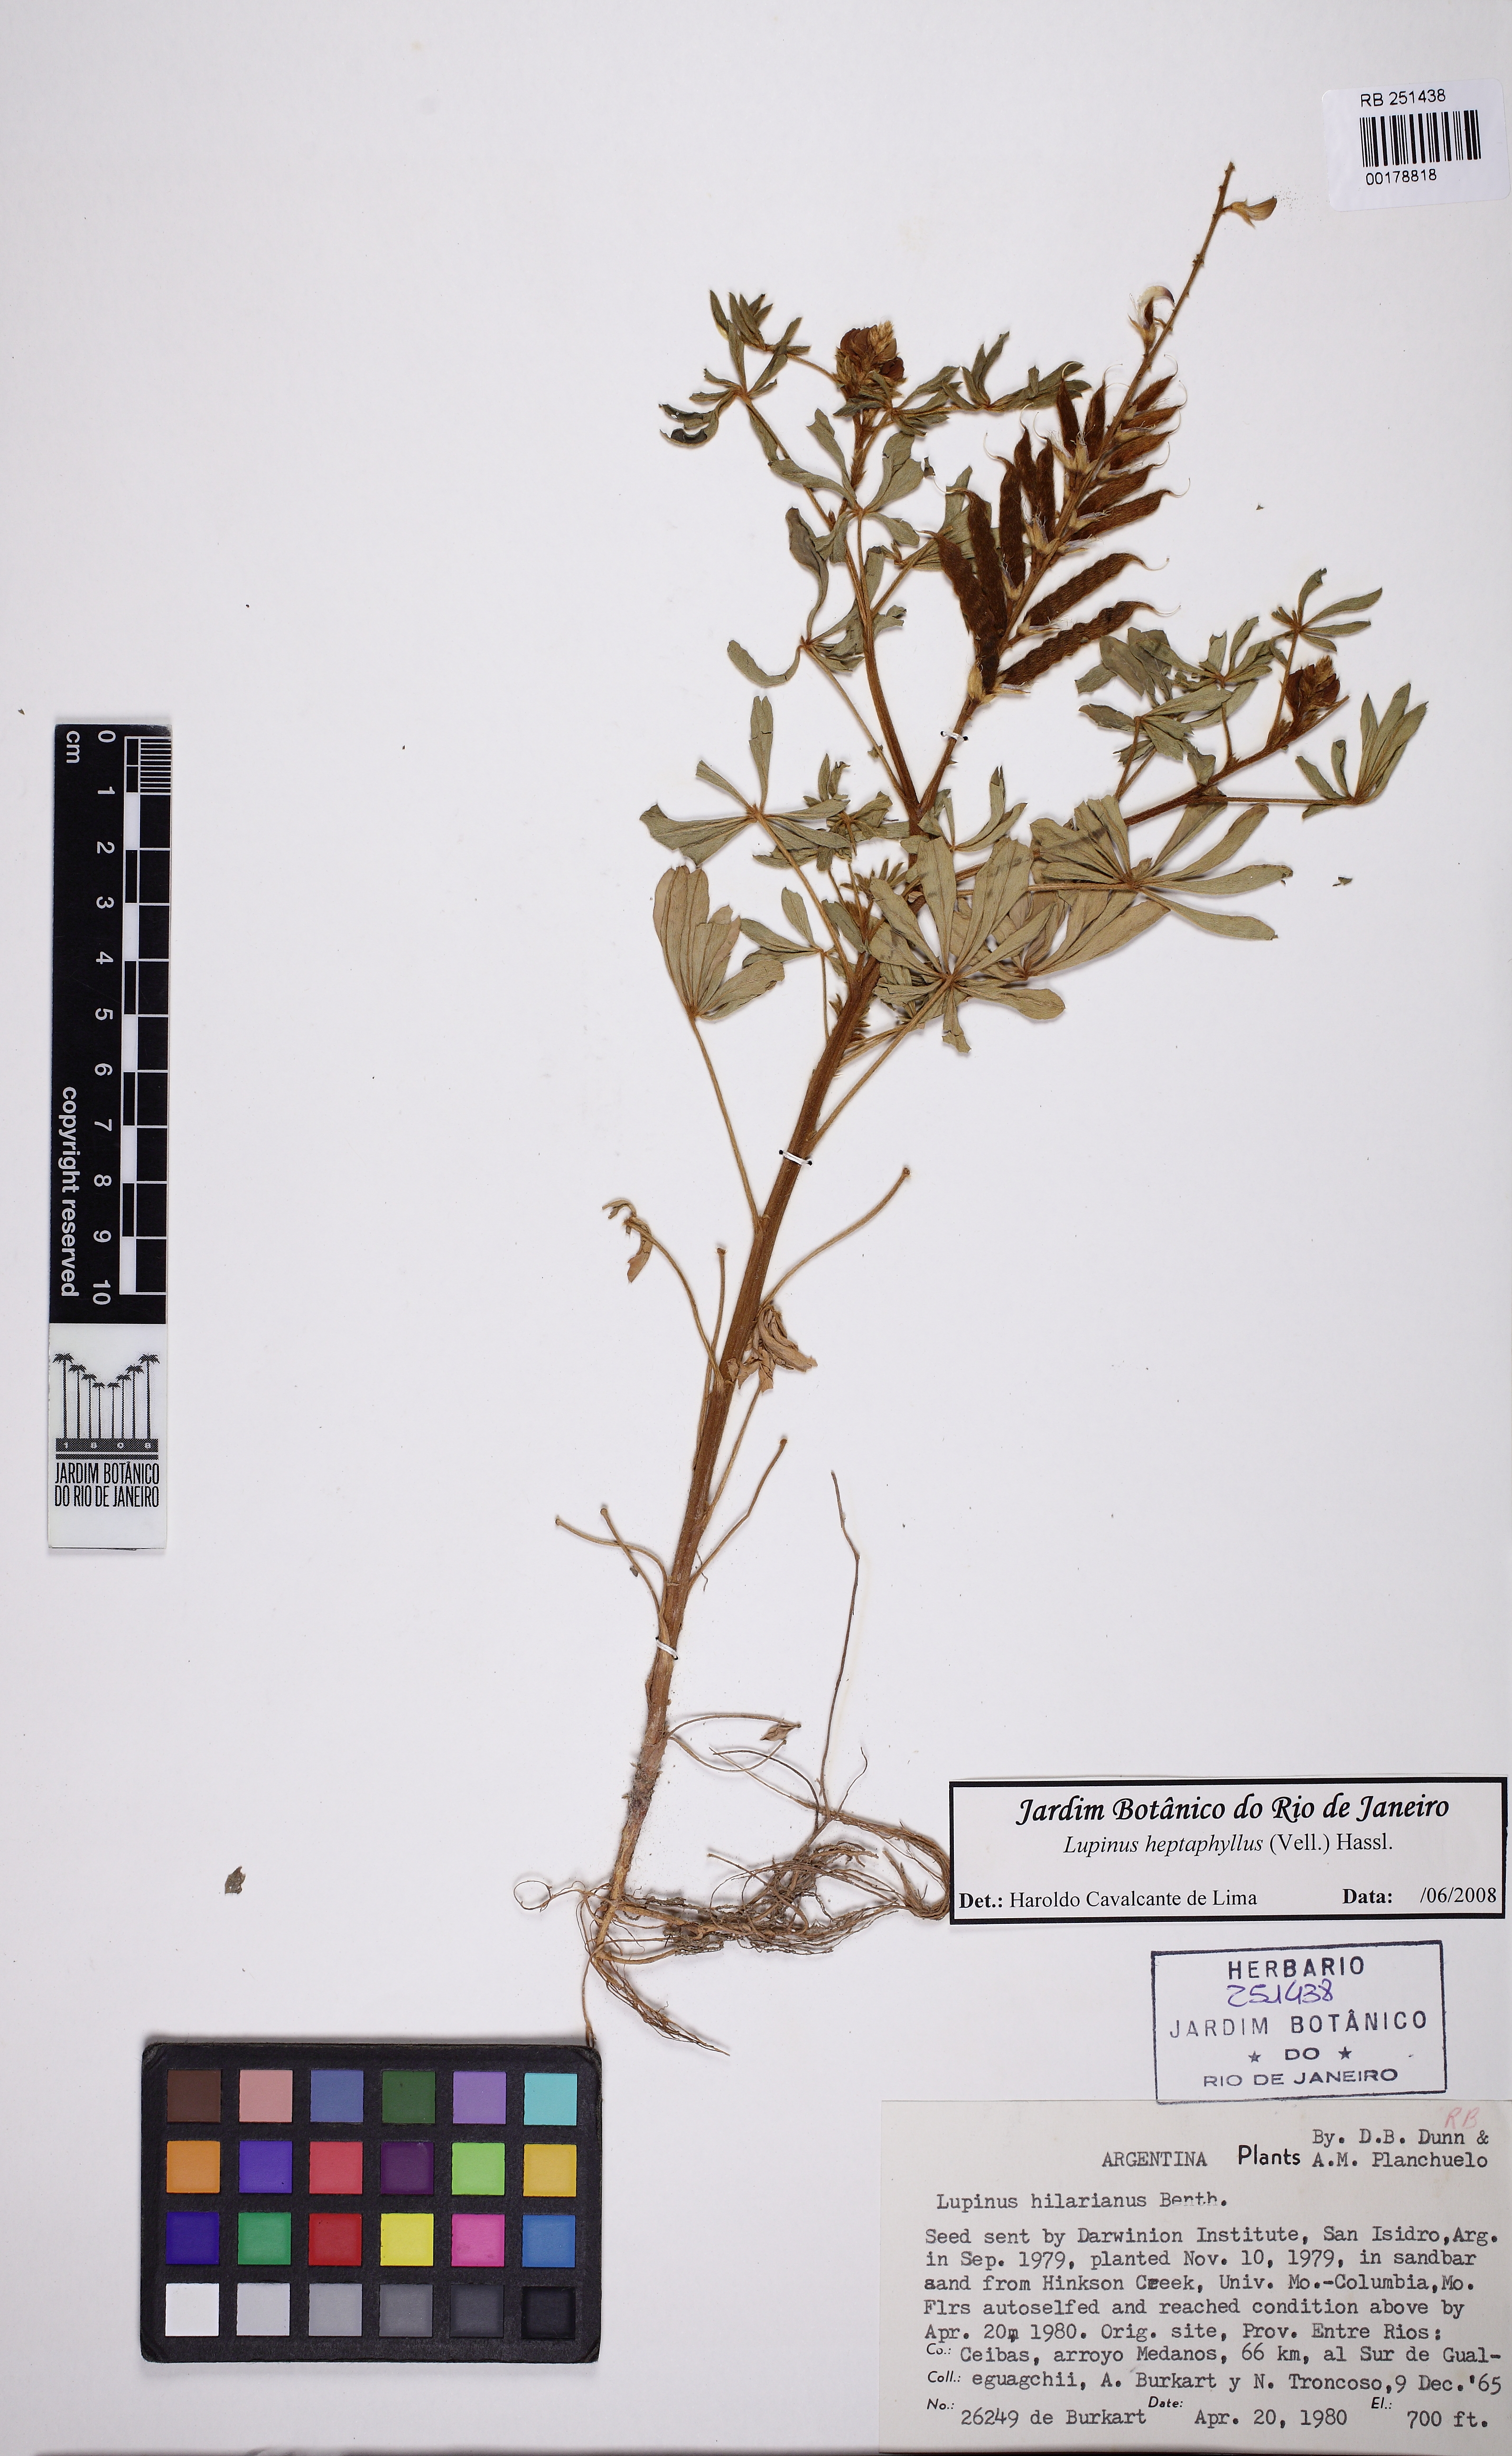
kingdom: Plantae
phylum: Tracheophyta
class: Magnoliopsida
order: Fabales
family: Fabaceae
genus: Lupinus
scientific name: Lupinus heptaphyllus
